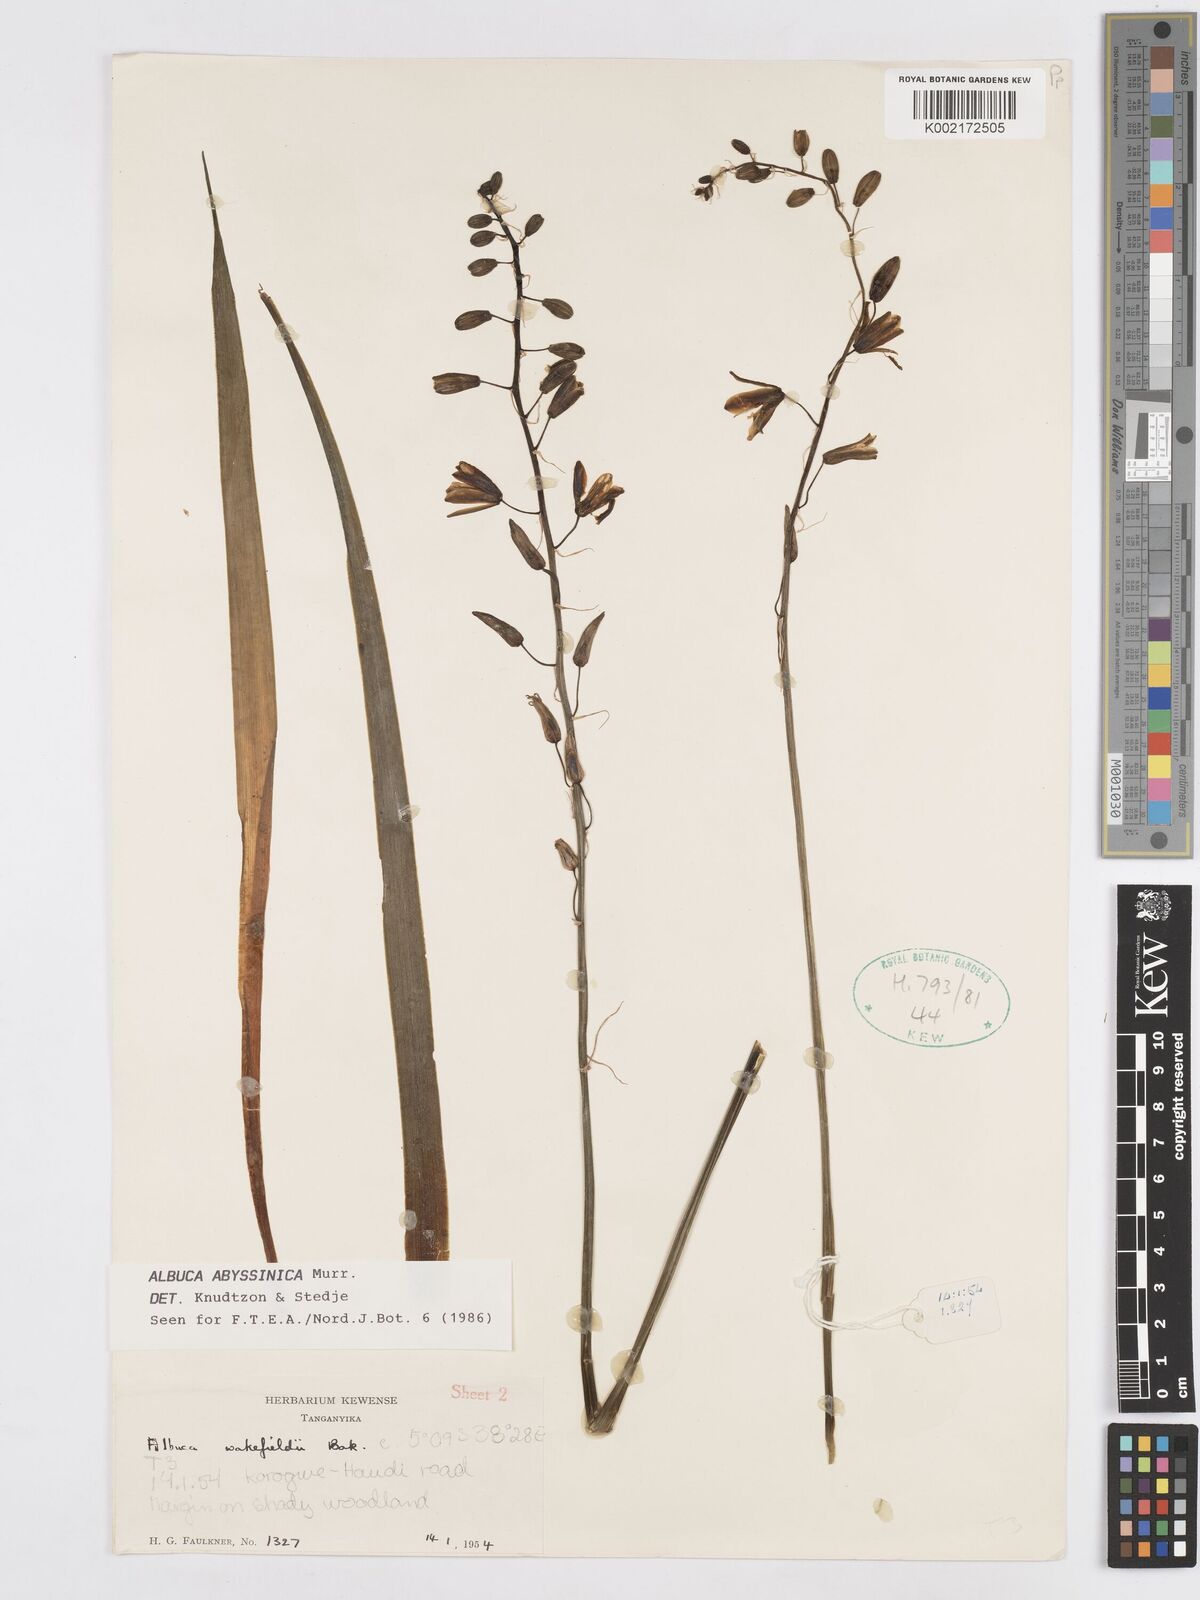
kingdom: Plantae
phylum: Tracheophyta
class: Liliopsida
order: Asparagales
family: Asparagaceae
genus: Albuca
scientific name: Albuca abyssinica
